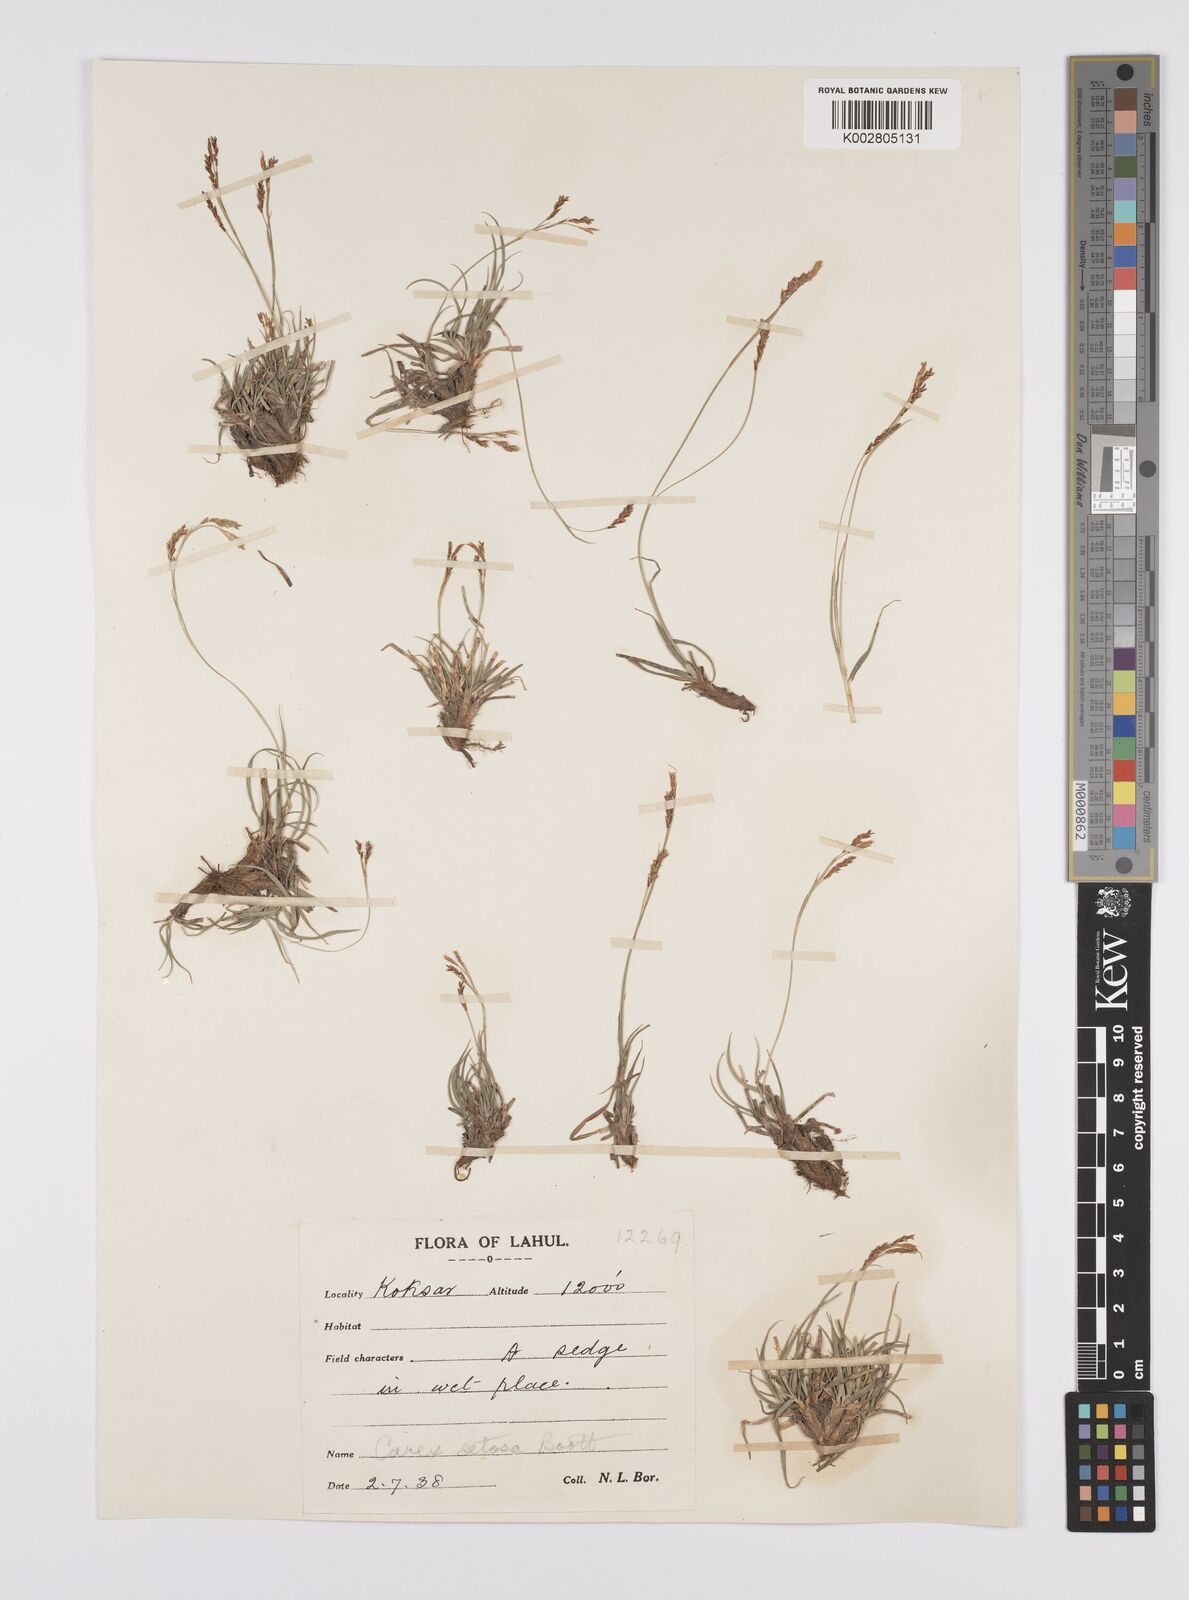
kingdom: Plantae
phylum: Tracheophyta
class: Liliopsida
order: Poales
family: Cyperaceae
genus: Carex
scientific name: Carex setosa
